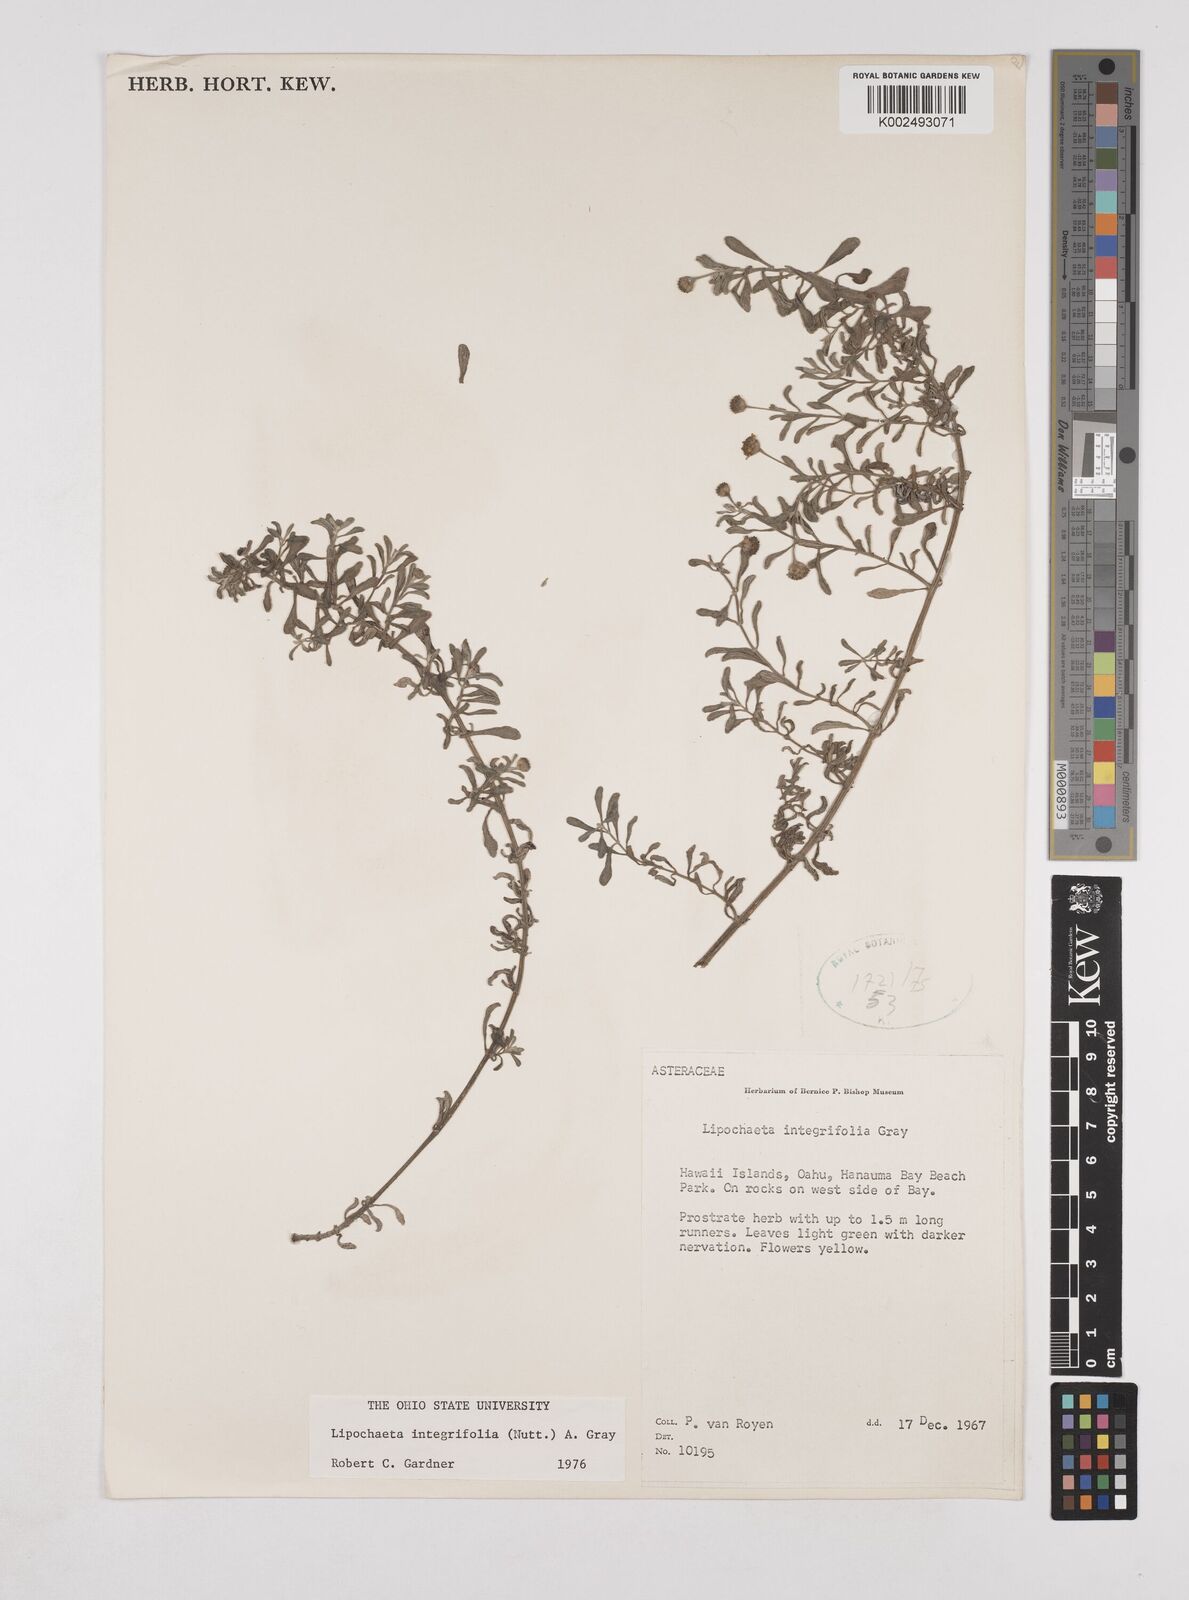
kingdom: Plantae
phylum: Tracheophyta
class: Magnoliopsida
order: Asterales
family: Asteraceae
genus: Lipochaeta
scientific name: Lipochaeta integrifolia
